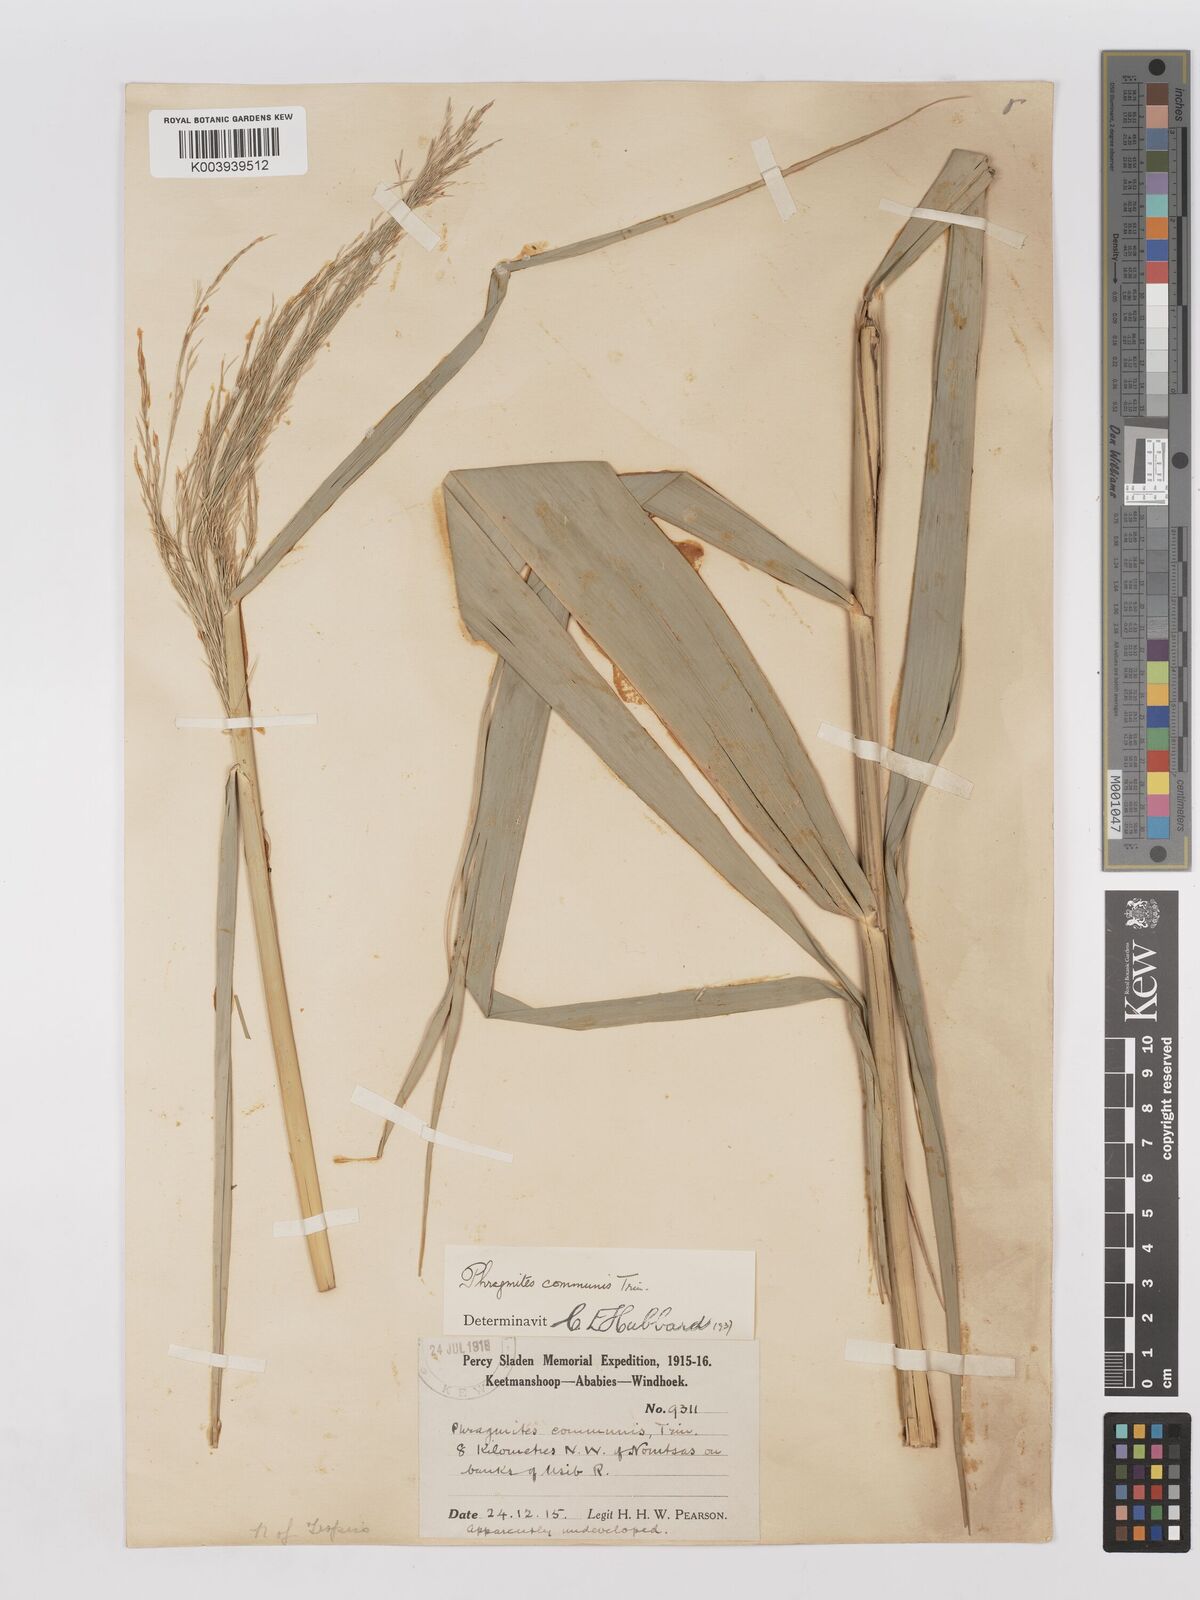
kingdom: Plantae
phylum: Tracheophyta
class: Liliopsida
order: Poales
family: Poaceae
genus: Phragmites
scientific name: Phragmites australis
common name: Common reed
